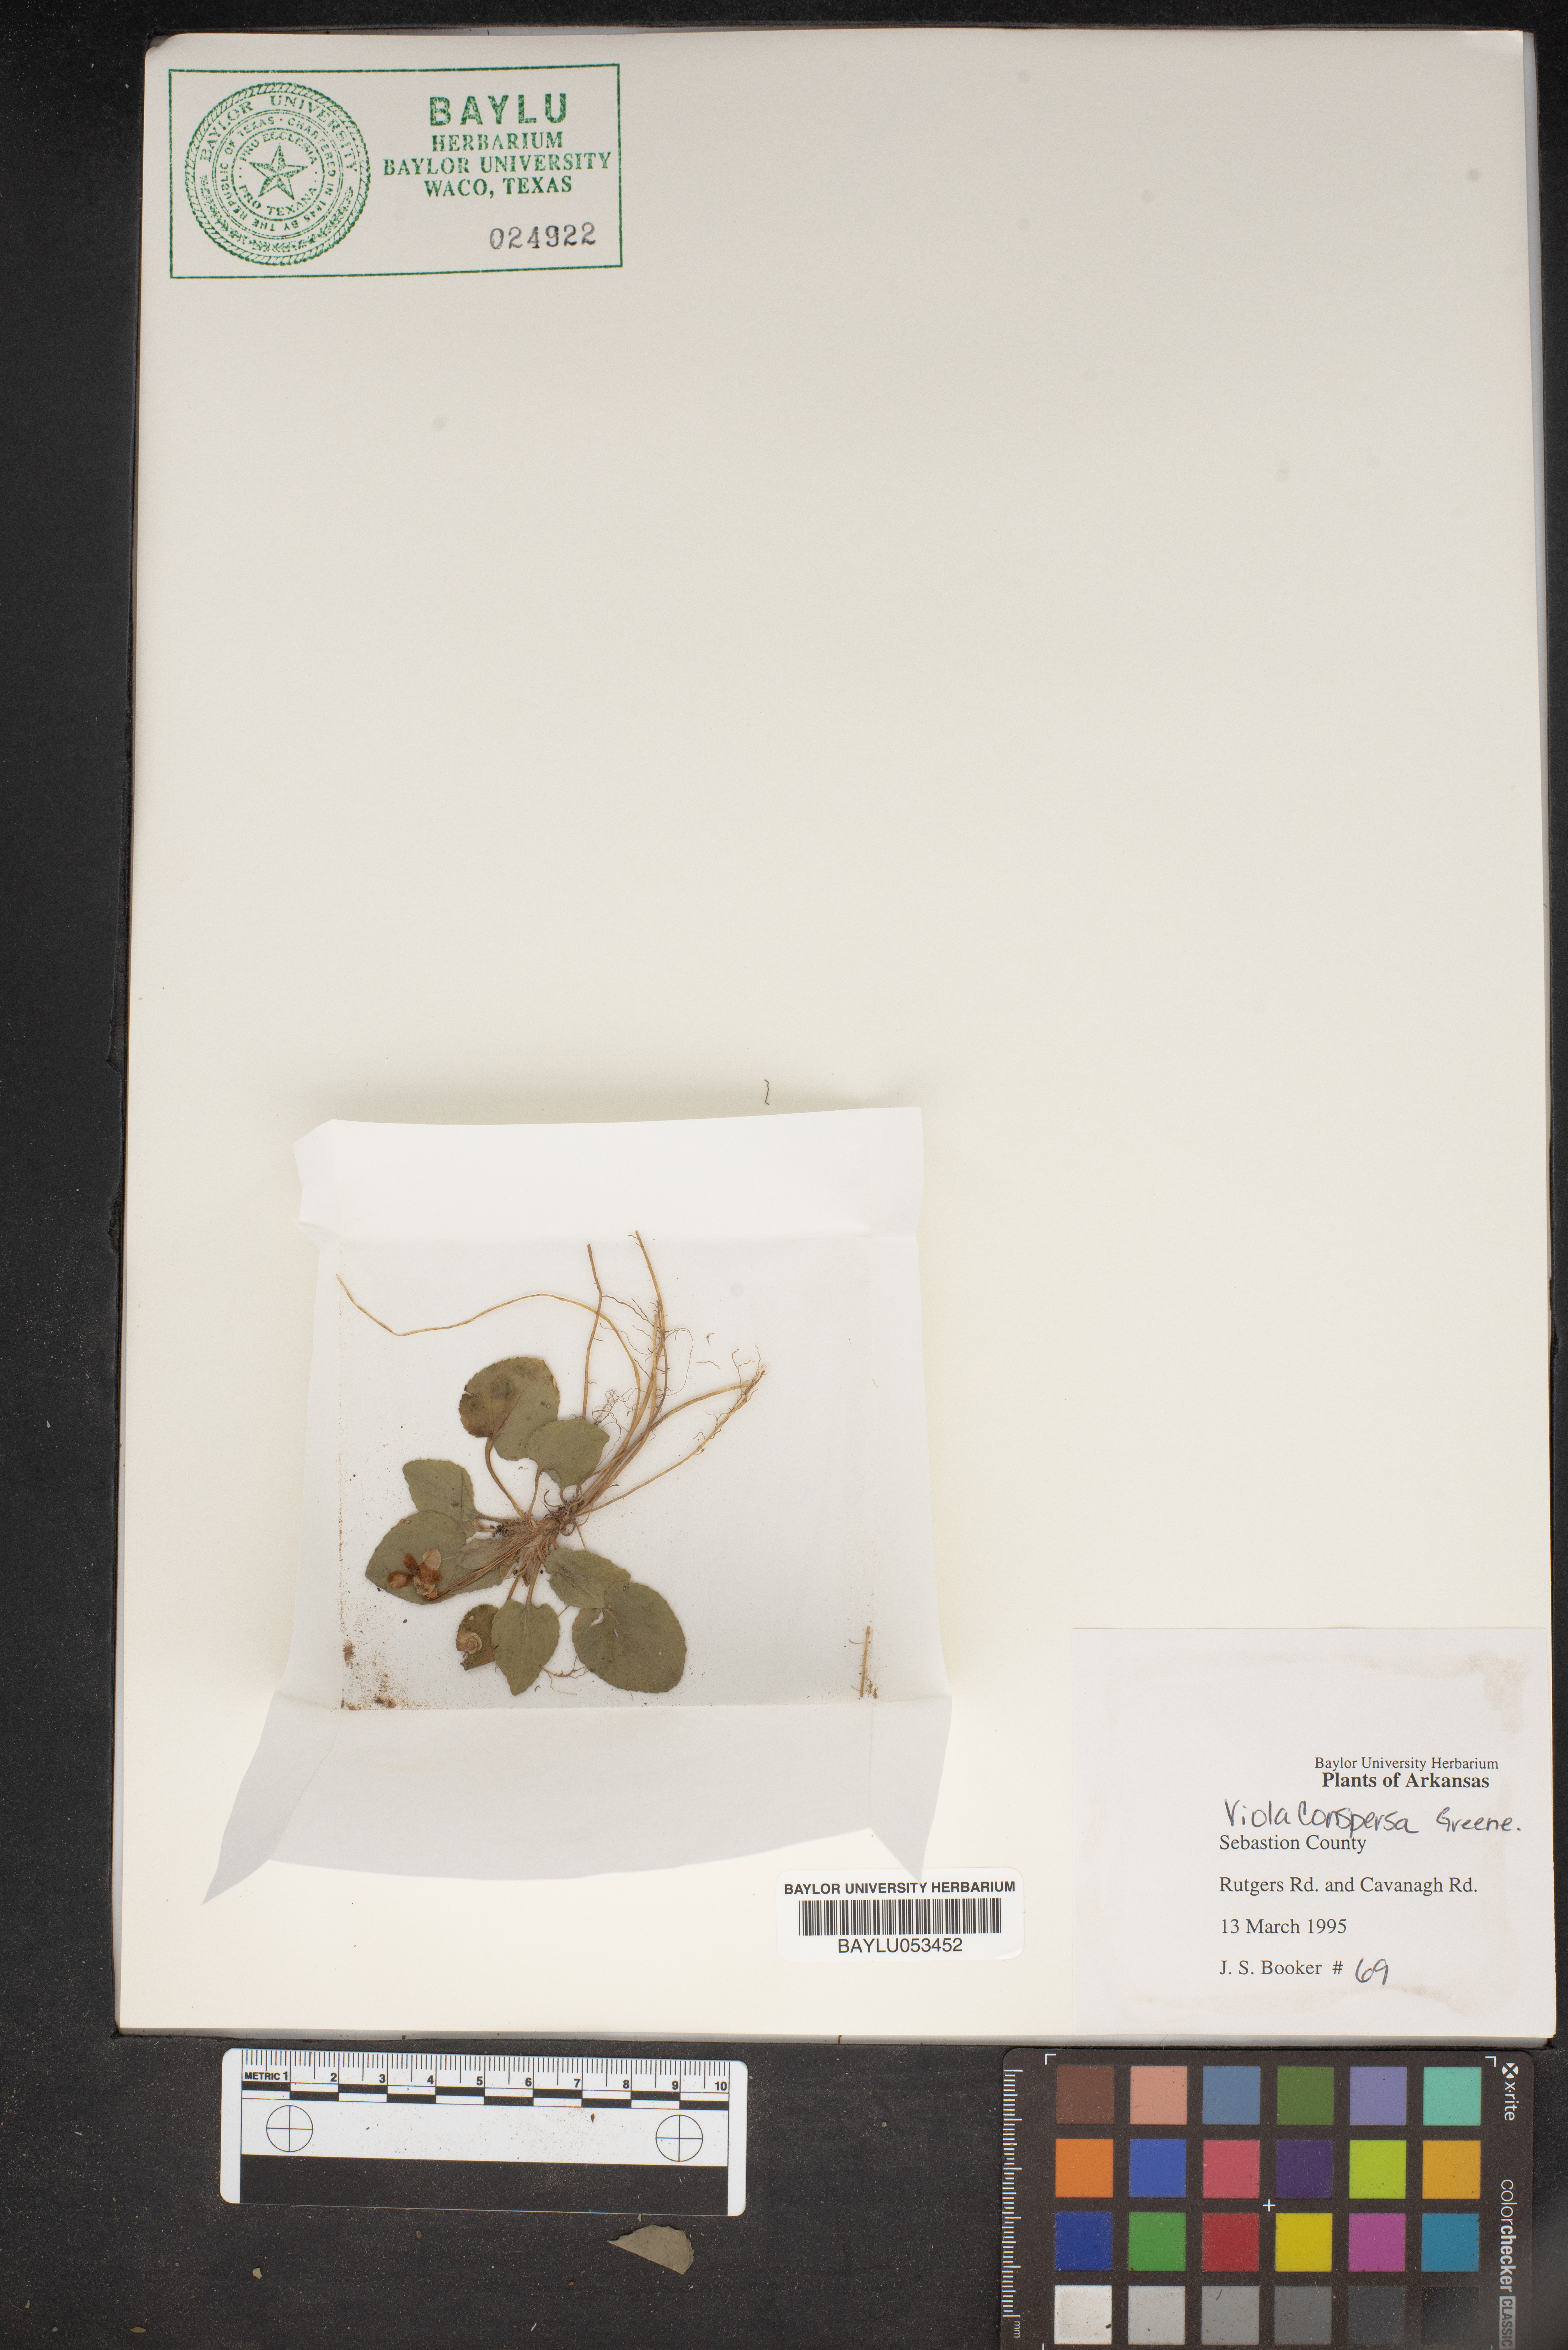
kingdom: Plantae
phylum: Tracheophyta
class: Magnoliopsida
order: Malpighiales
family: Violaceae
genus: Viola
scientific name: Viola labradorica
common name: Labrador violet
